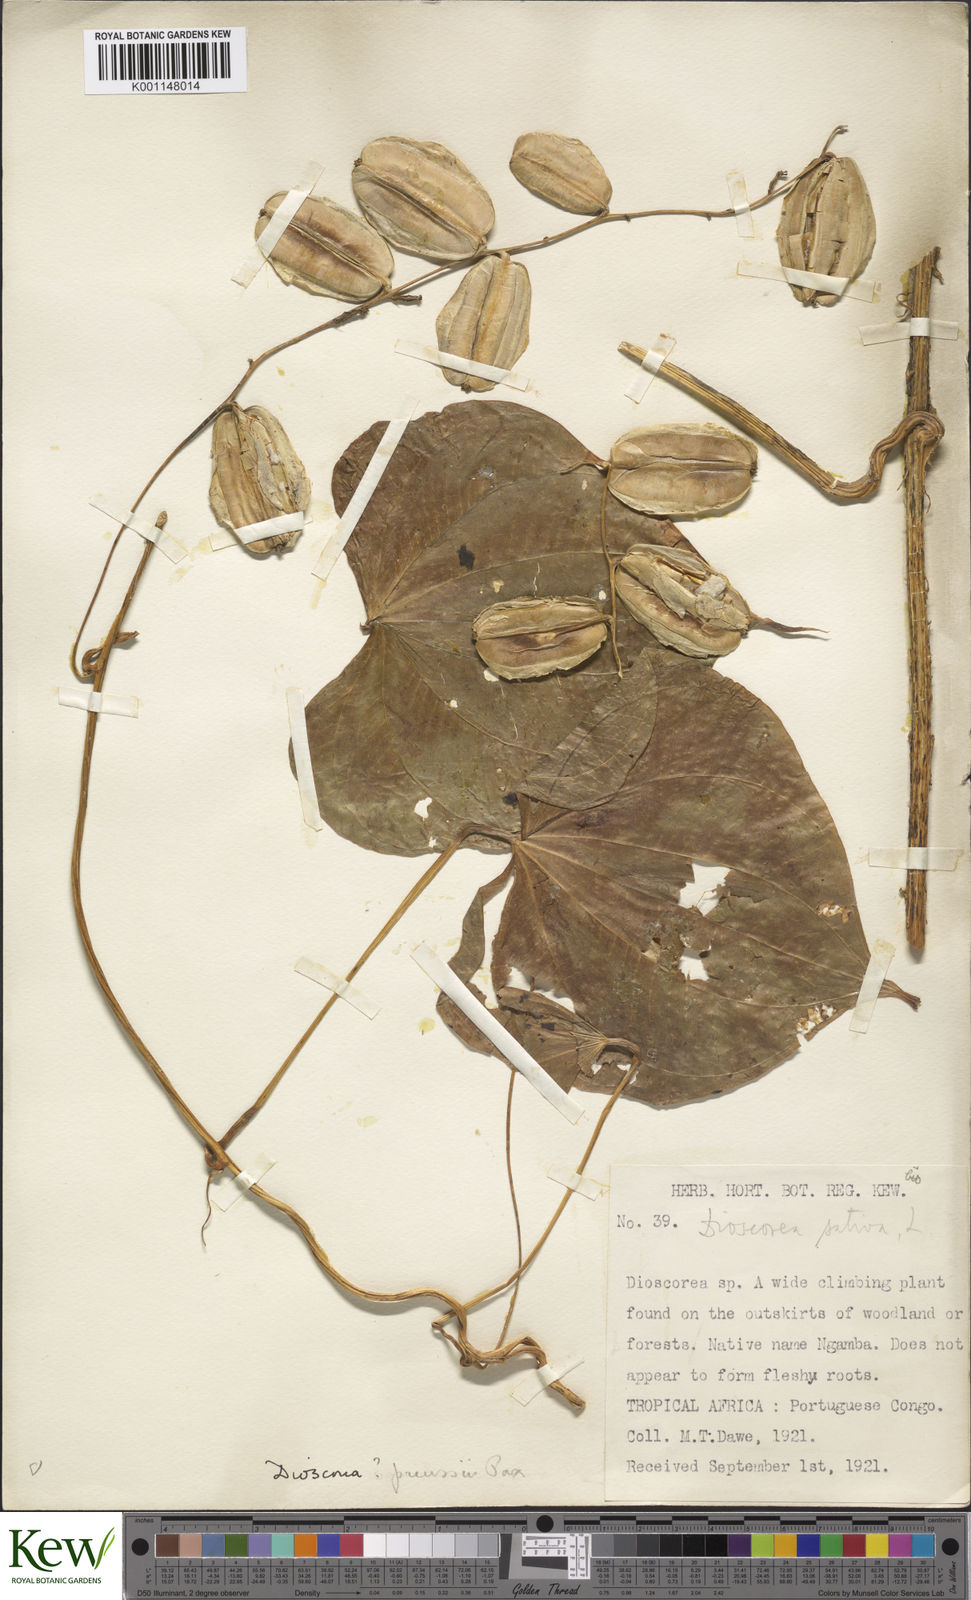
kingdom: Plantae
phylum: Tracheophyta
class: Liliopsida
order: Dioscoreales
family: Dioscoreaceae
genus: Dioscorea
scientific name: Dioscorea preussii
